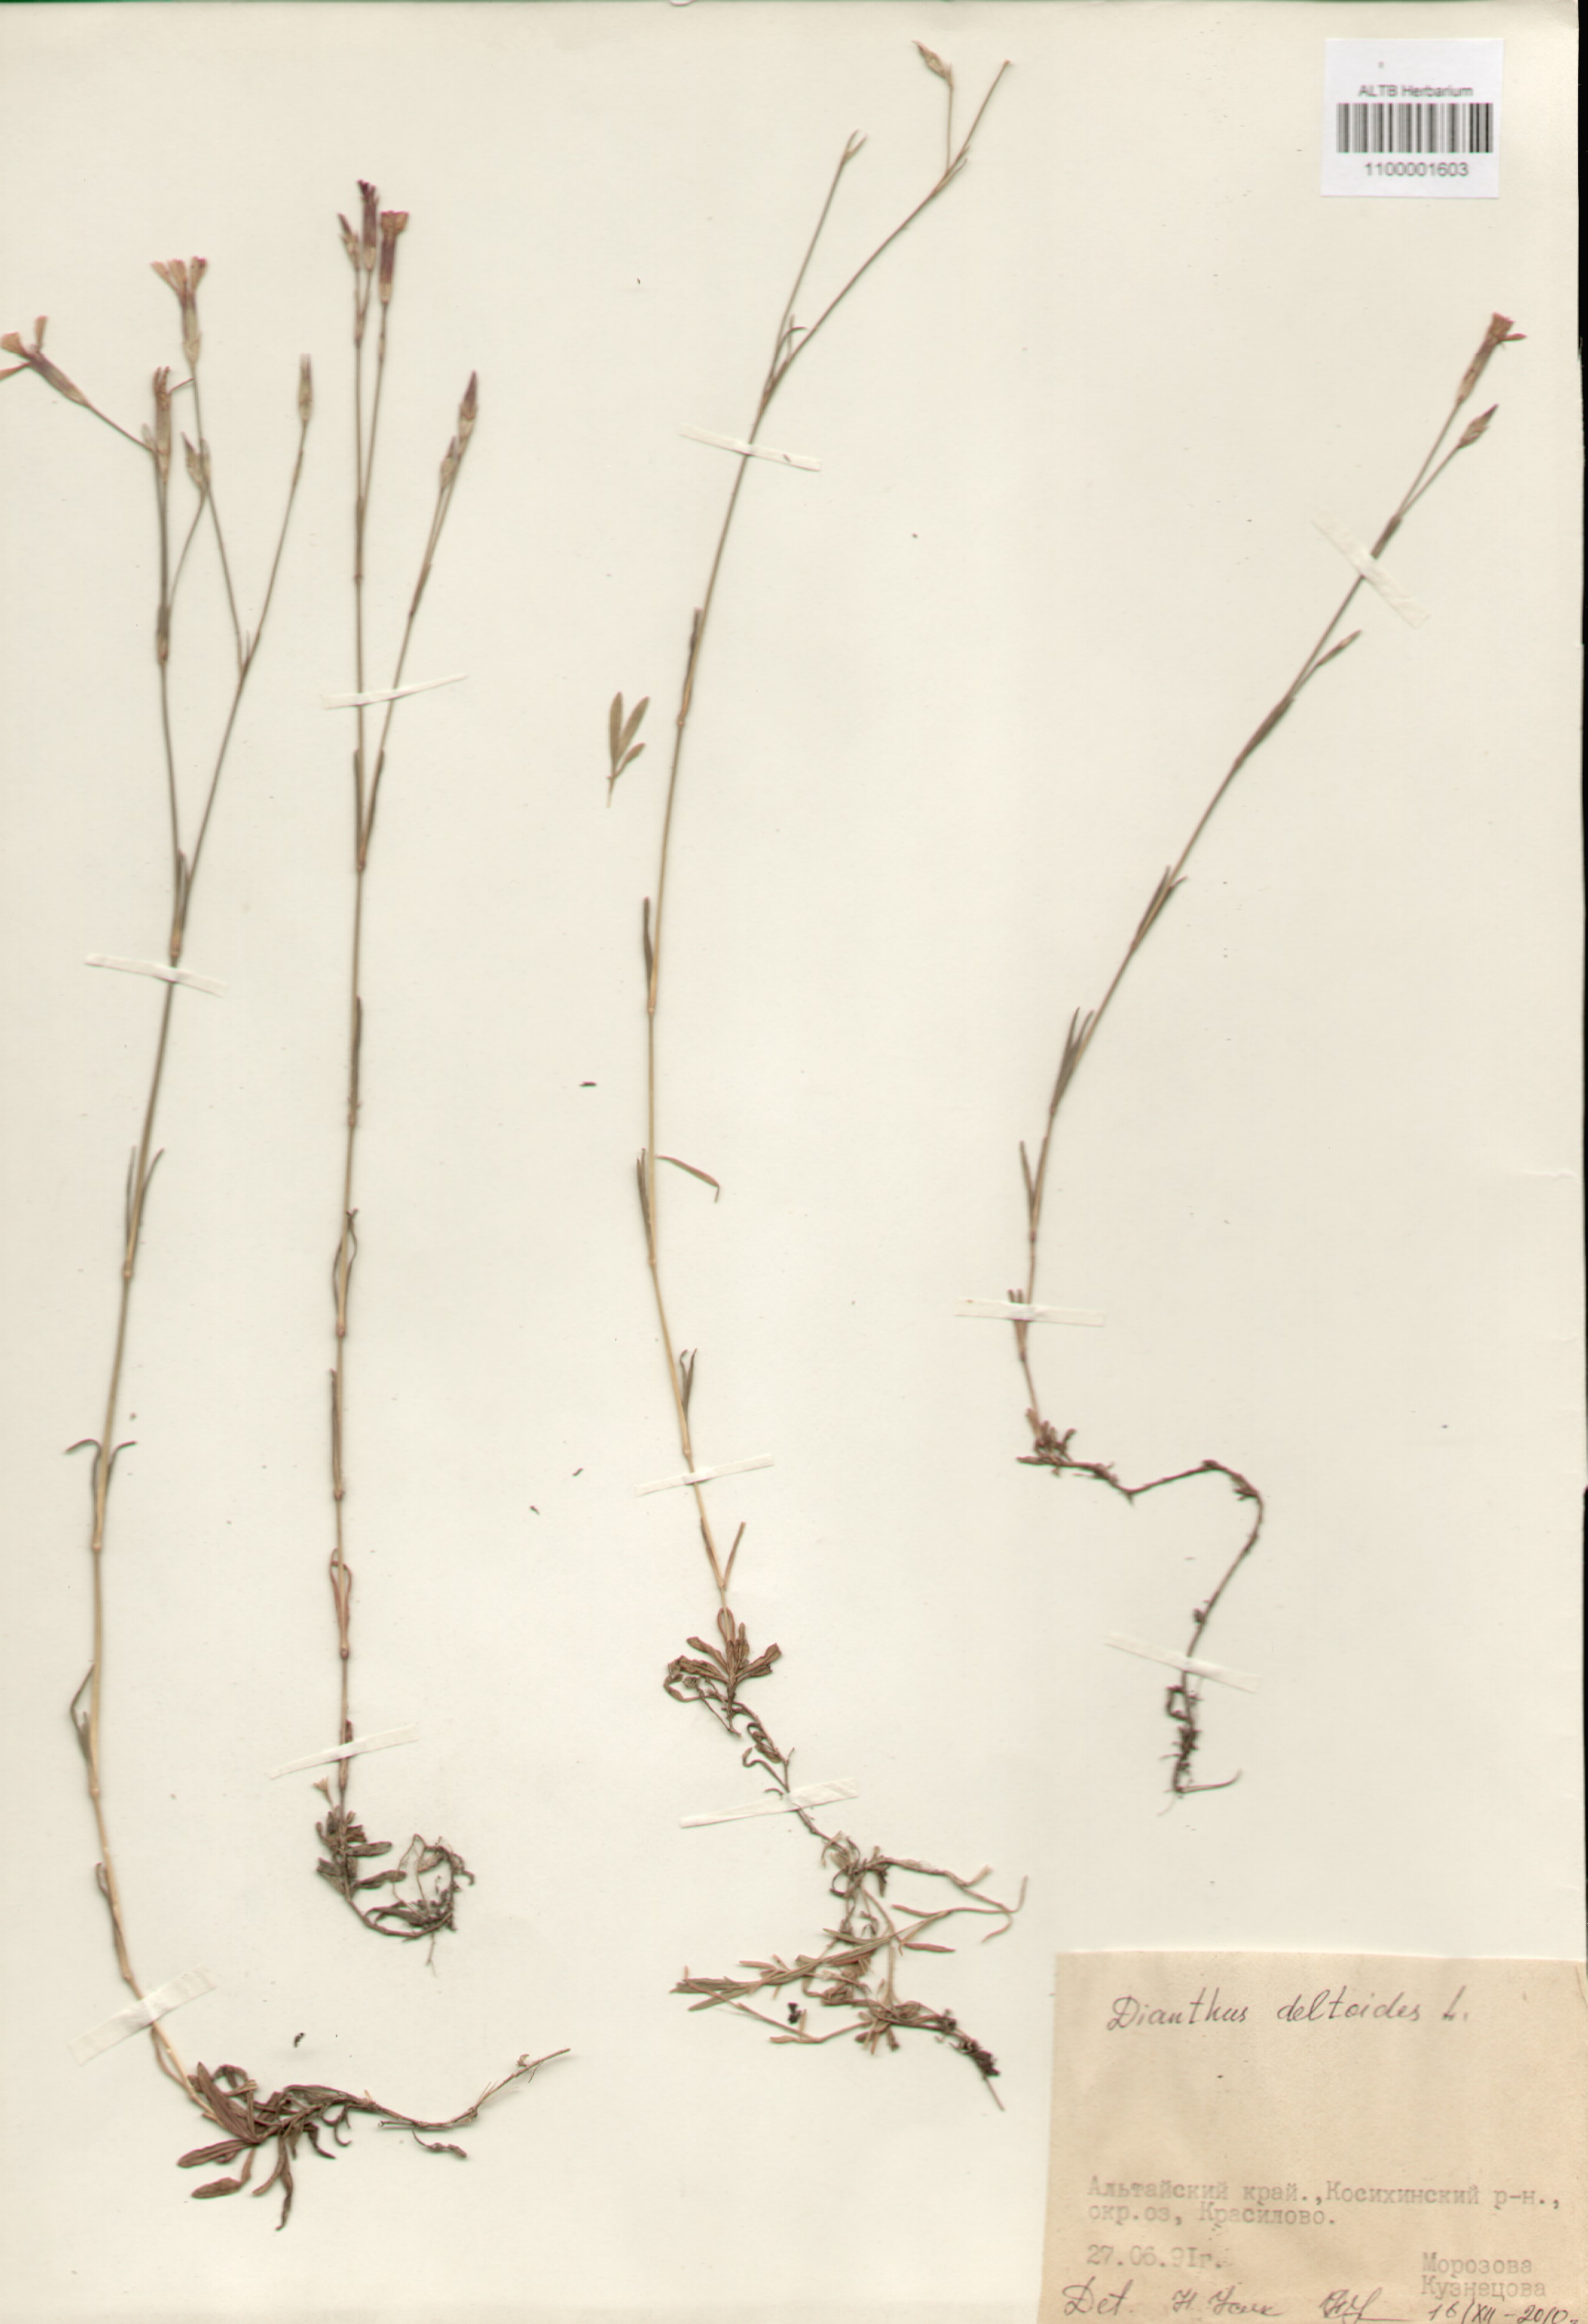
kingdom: Plantae
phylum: Tracheophyta
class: Magnoliopsida
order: Caryophyllales
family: Caryophyllaceae
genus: Dianthus
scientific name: Dianthus deltoides
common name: Maiden pink
